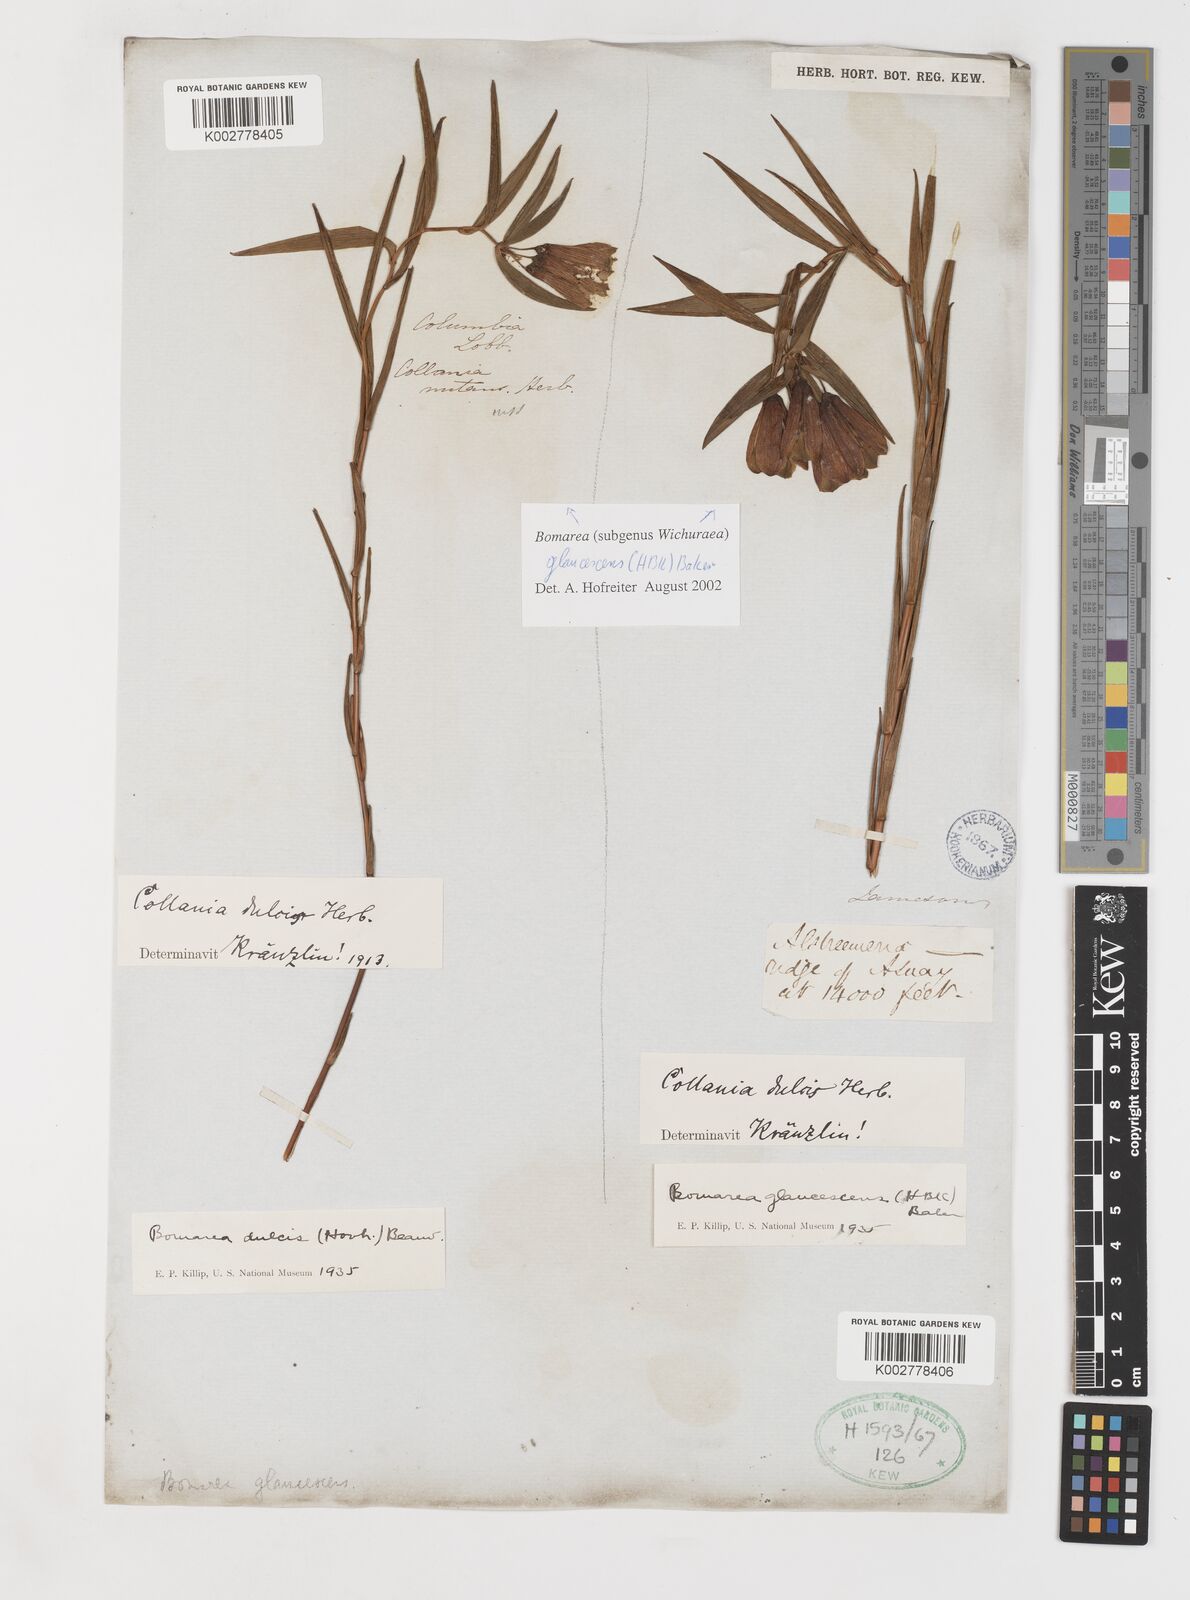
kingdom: Plantae
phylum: Tracheophyta
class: Liliopsida
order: Liliales
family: Alstroemeriaceae
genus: Bomarea
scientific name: Bomarea glaucescens
